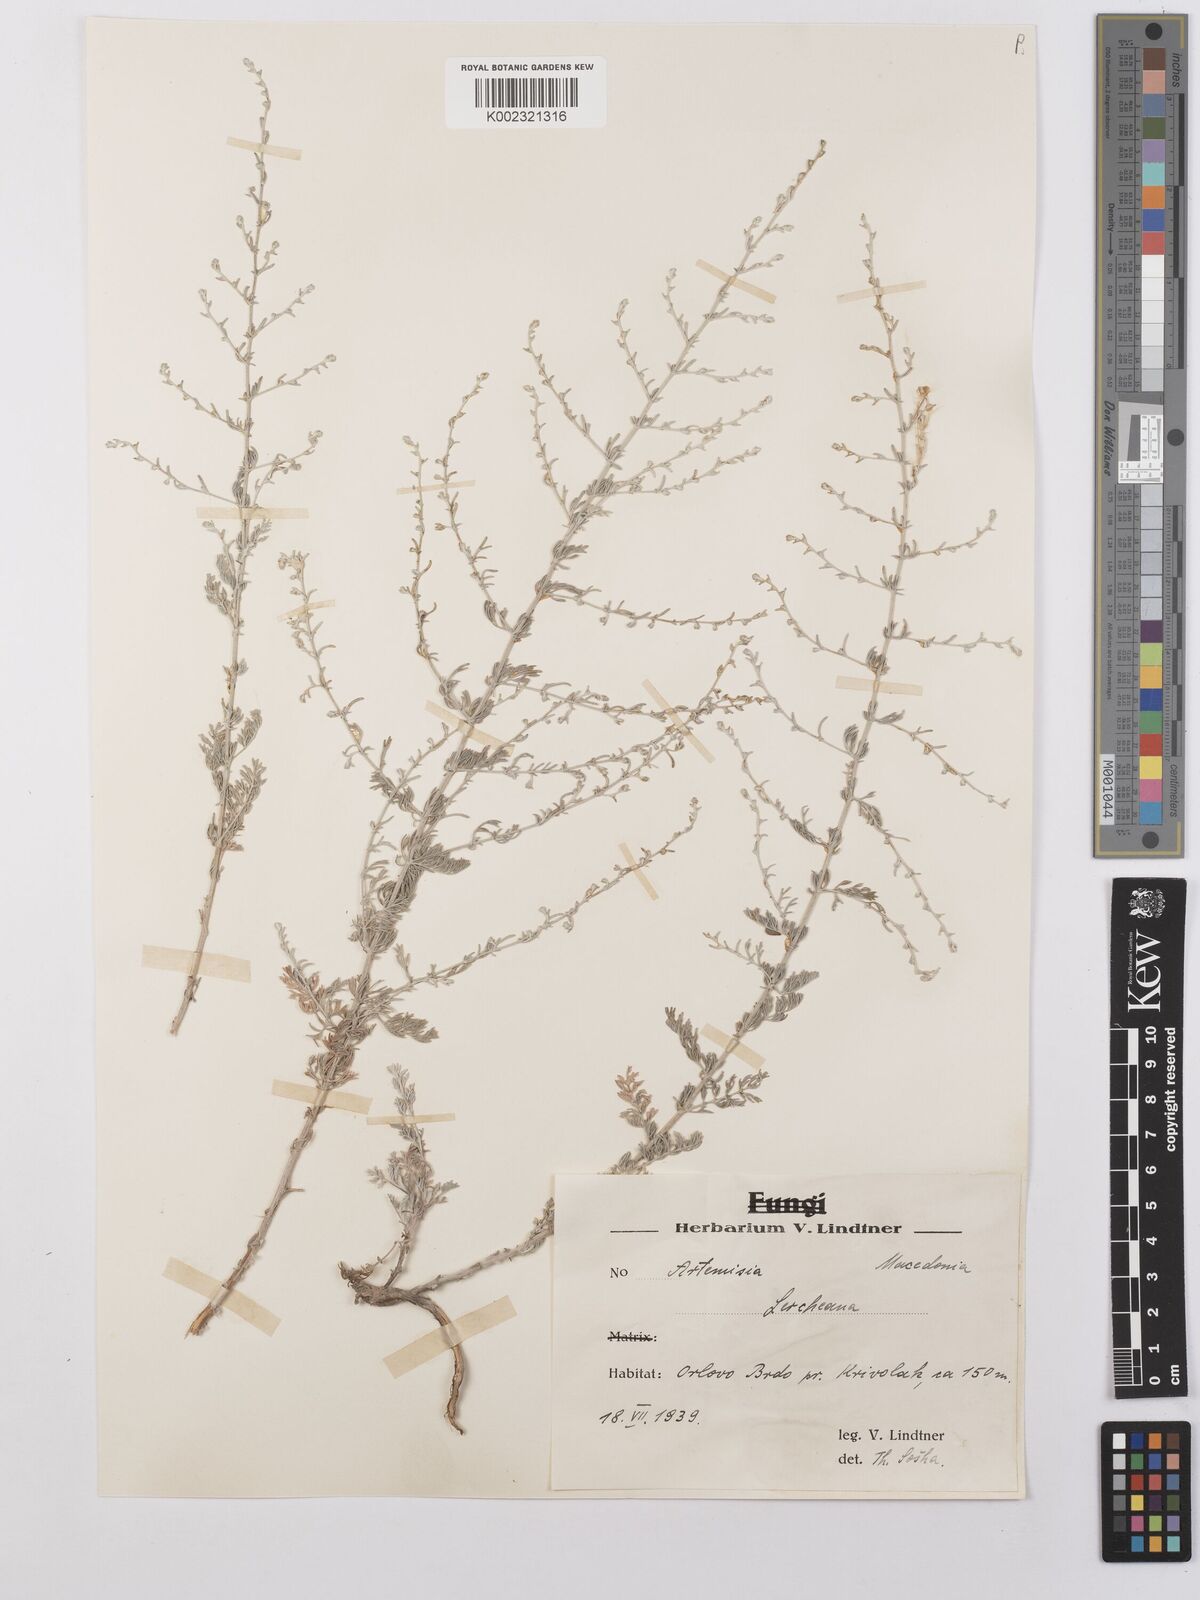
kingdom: Plantae
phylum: Tracheophyta
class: Magnoliopsida
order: Asterales
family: Asteraceae
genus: Artemisia
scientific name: Artemisia taurica
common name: Tauric wormwood
